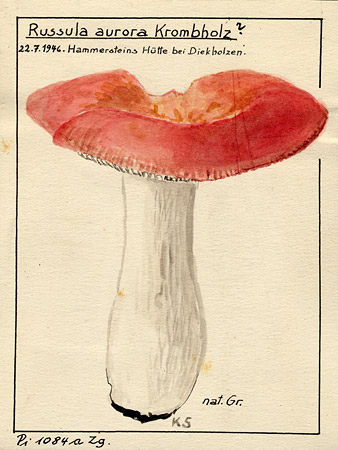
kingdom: Fungi
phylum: Basidiomycota
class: Agaricomycetes
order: Russulales
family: Russulaceae
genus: Russula
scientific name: Russula aurora
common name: Dawn brittlegill
